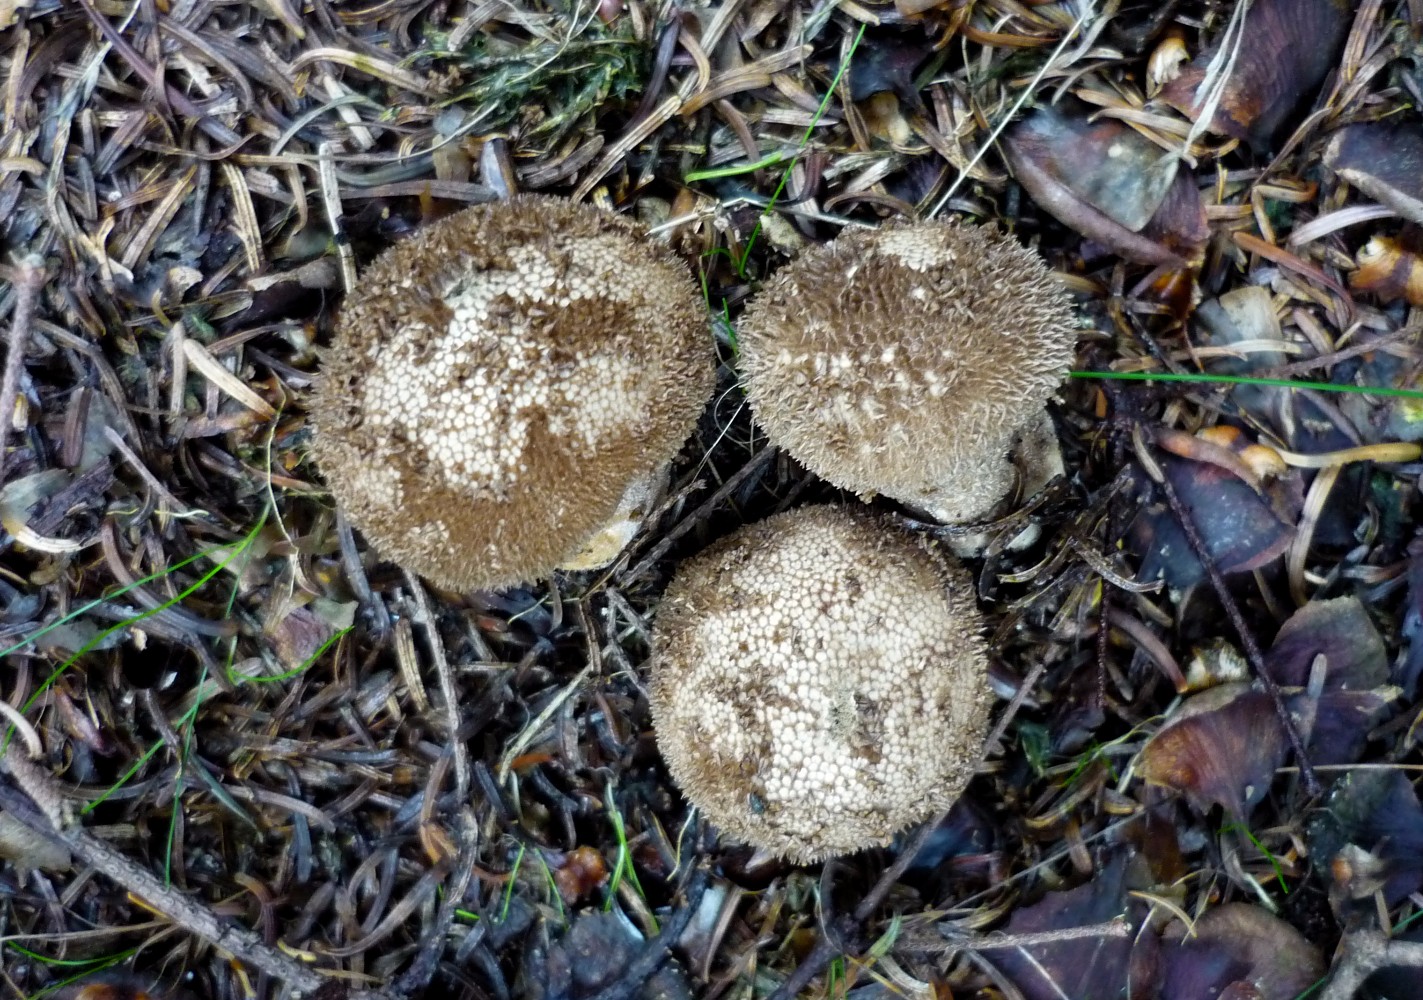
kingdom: Fungi
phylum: Basidiomycota
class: Agaricomycetes
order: Agaricales
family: Lycoperdaceae
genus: Lycoperdon
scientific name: Lycoperdon nigrescens
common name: sortagtig støvbold
